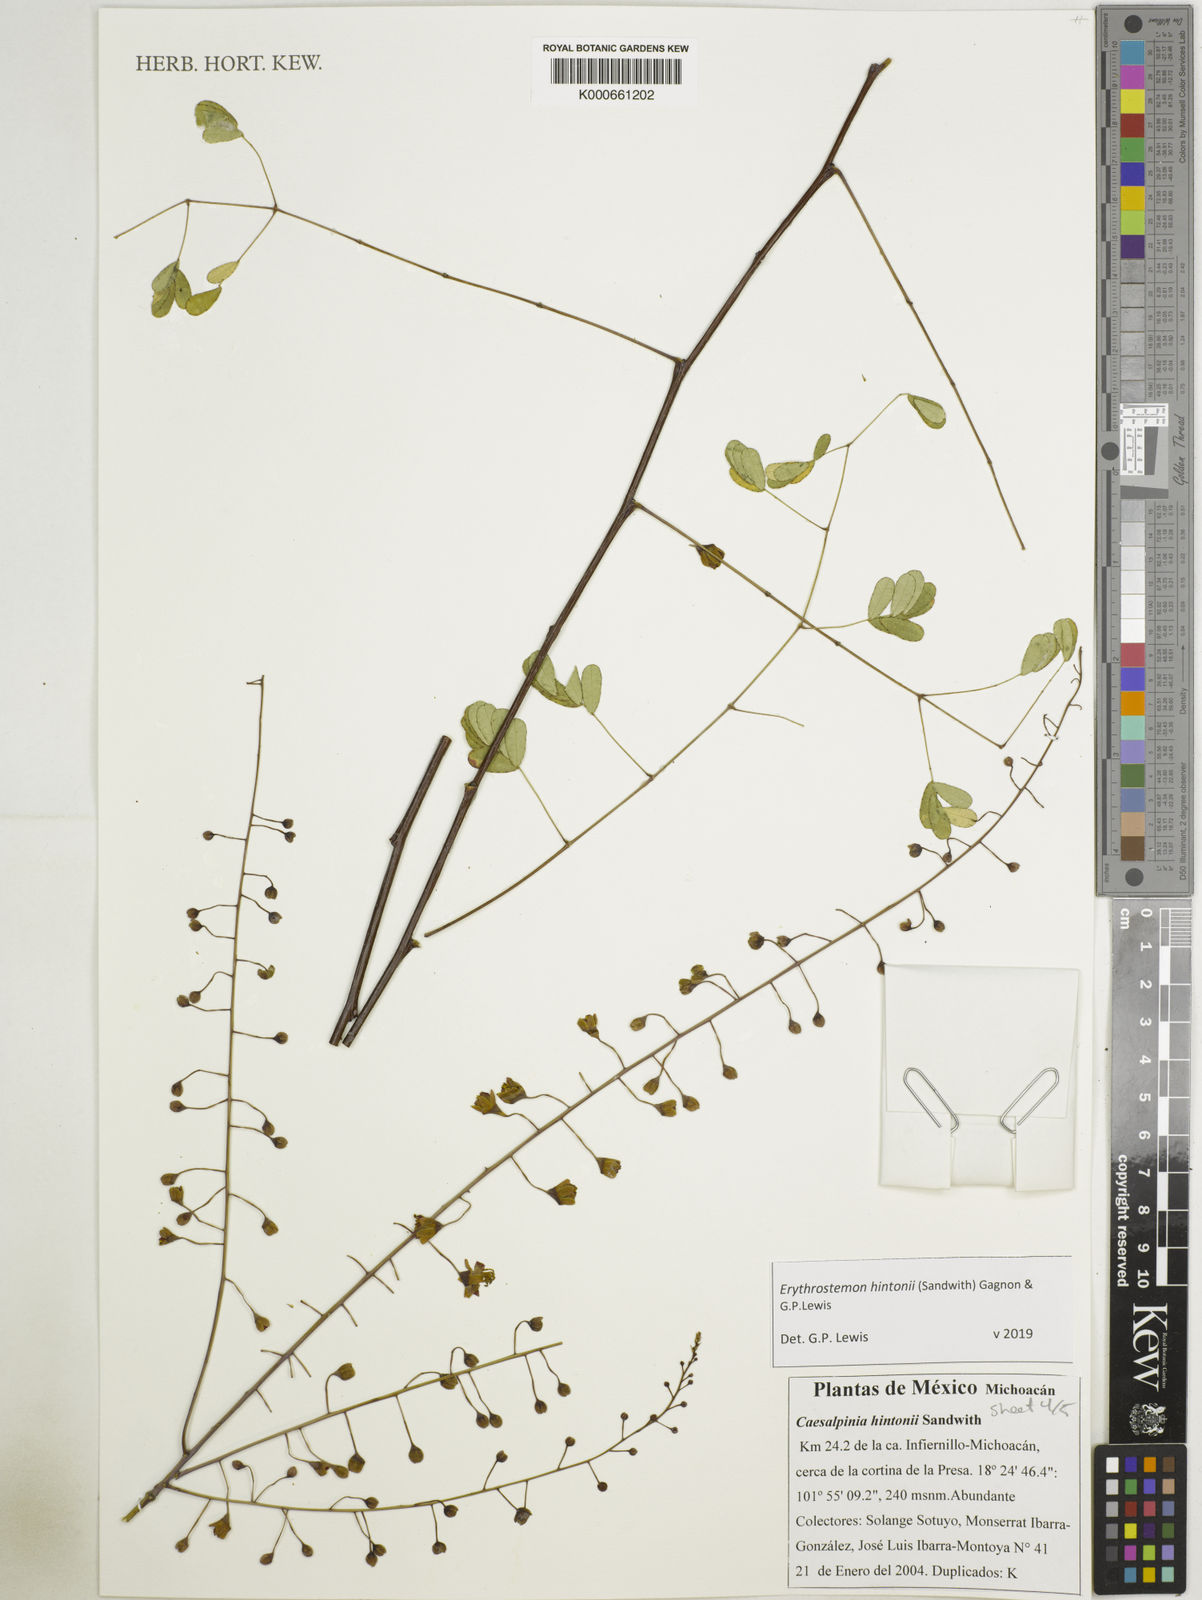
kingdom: Plantae
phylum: Tracheophyta
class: Magnoliopsida
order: Fabales
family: Fabaceae
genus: Erythrostemon
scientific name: Erythrostemon hintonii
